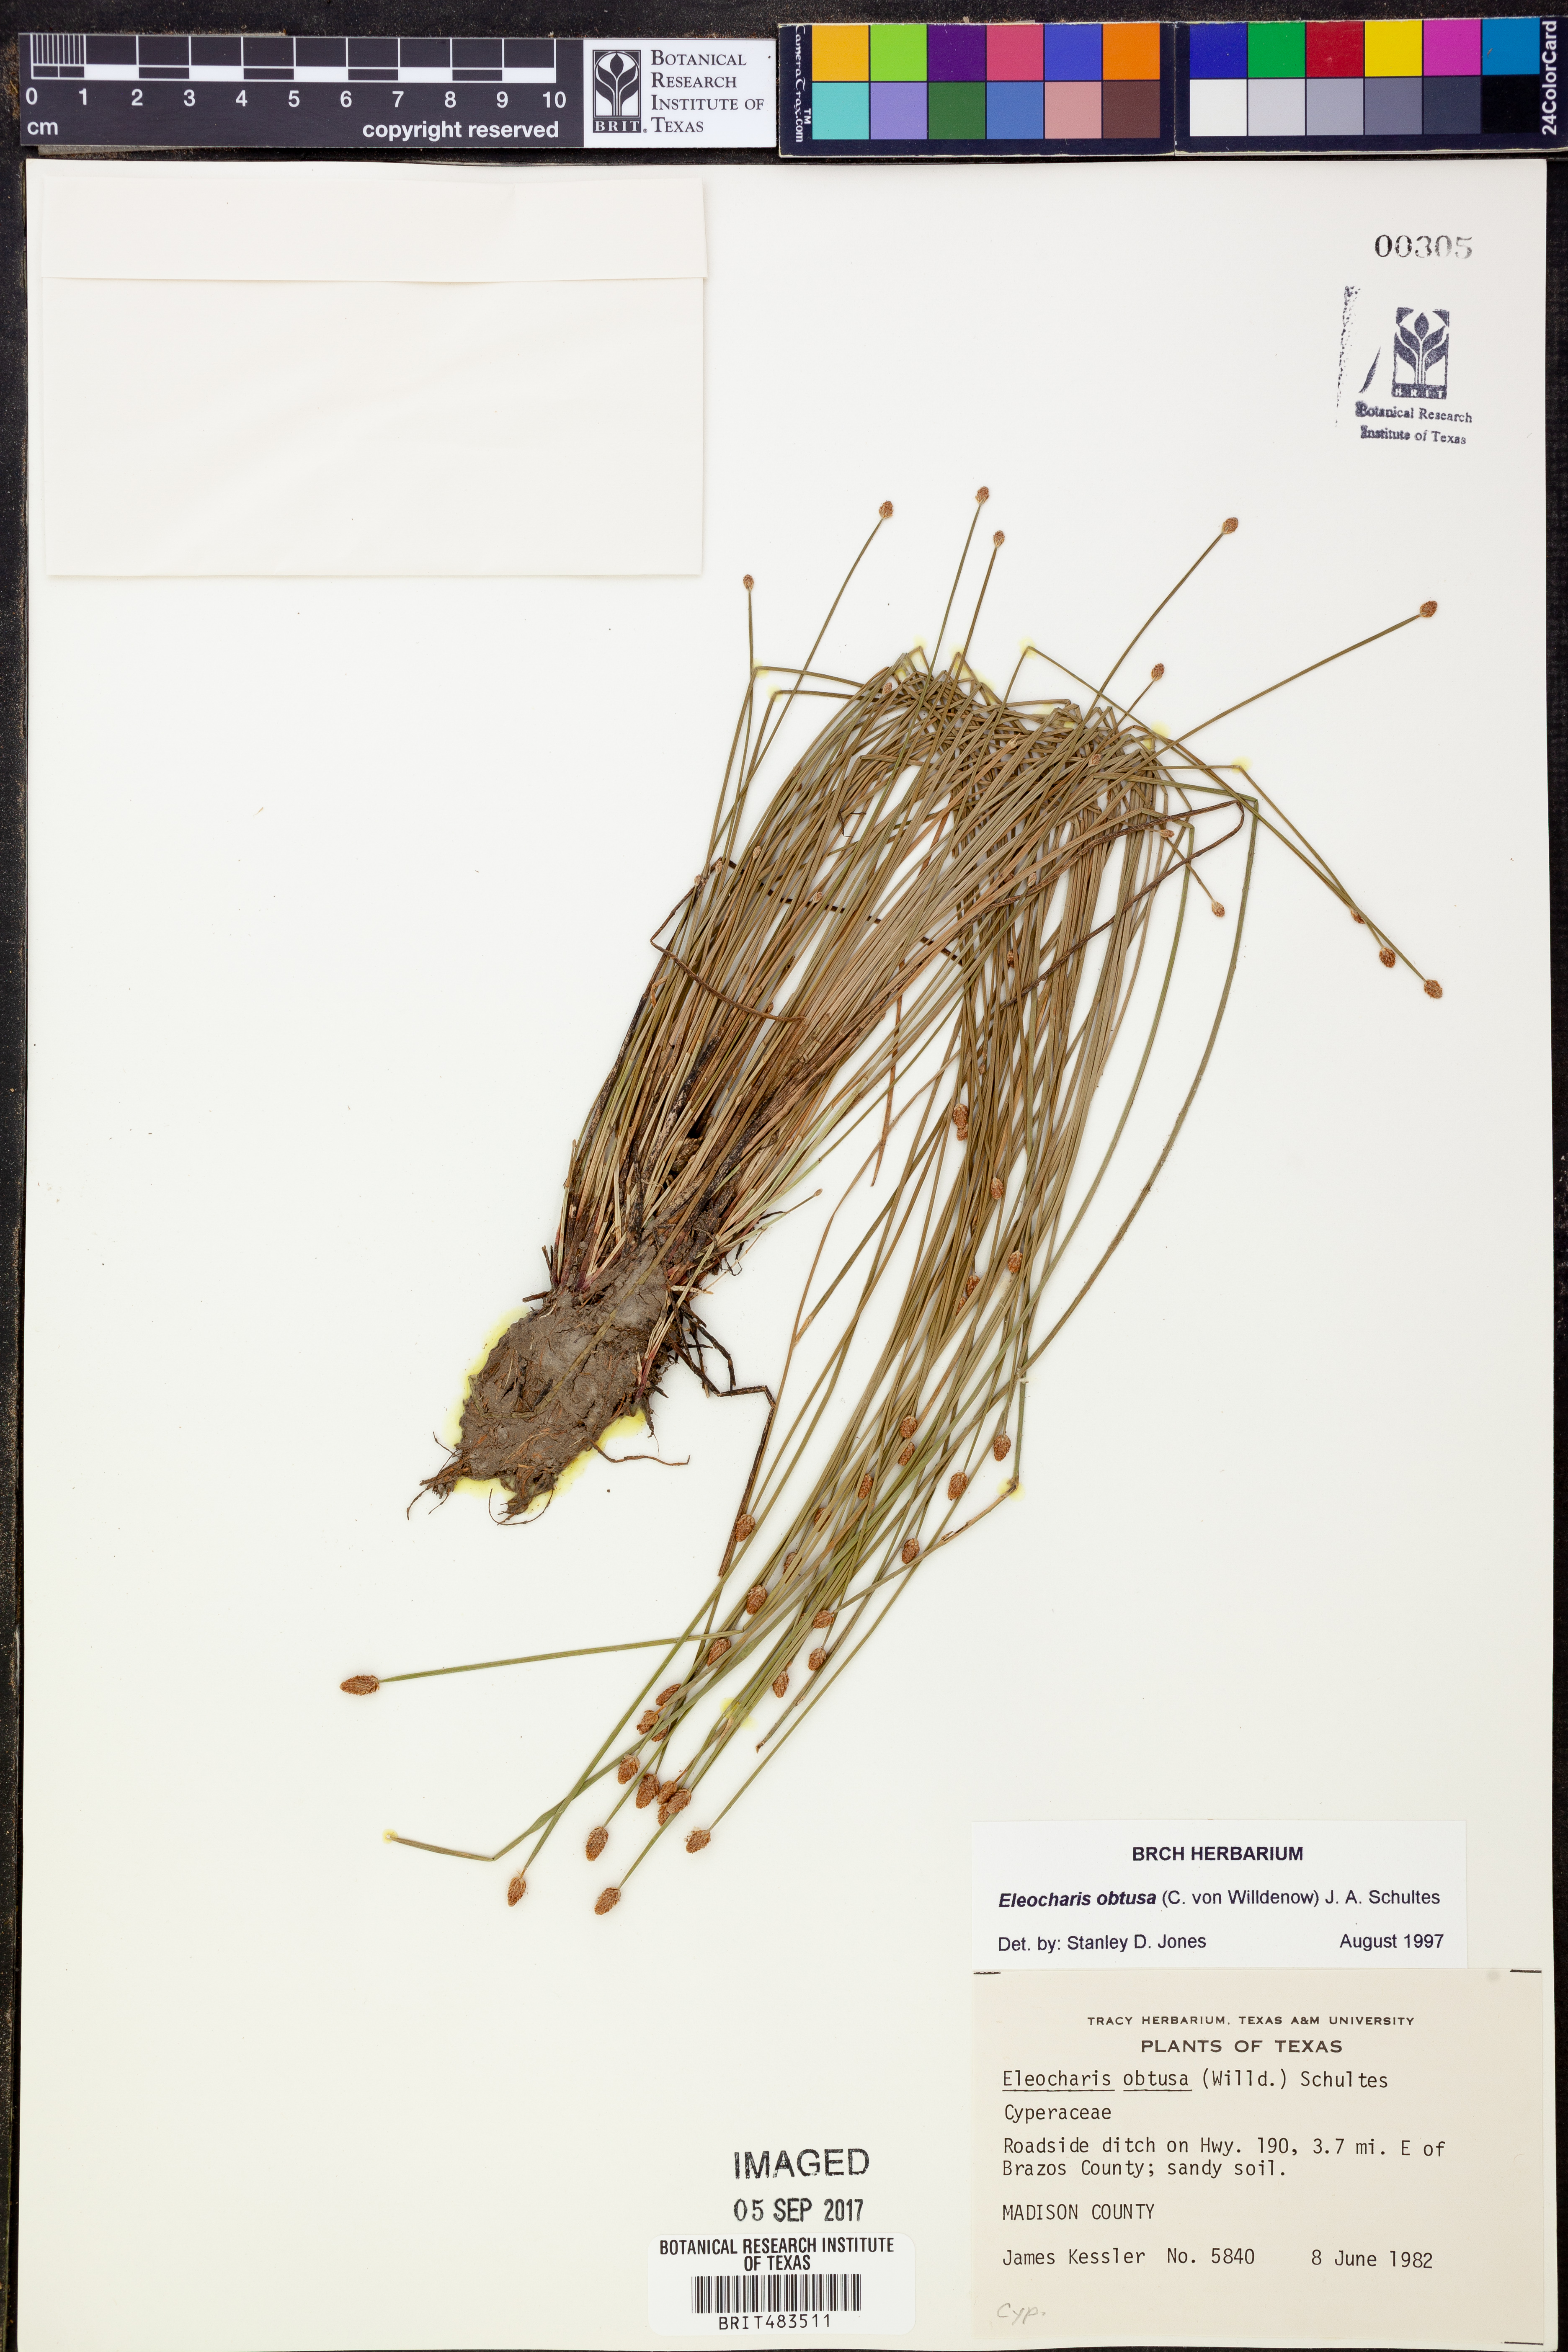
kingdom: Plantae
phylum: Tracheophyta
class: Liliopsida
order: Poales
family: Cyperaceae
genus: Eleocharis
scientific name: Eleocharis obtusa
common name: Blunt spikerush
